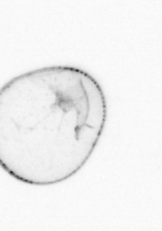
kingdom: Chromista
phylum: Myzozoa
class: Dinophyceae
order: Noctilucales
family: Noctilucaceae
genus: Noctiluca
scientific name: Noctiluca scintillans
